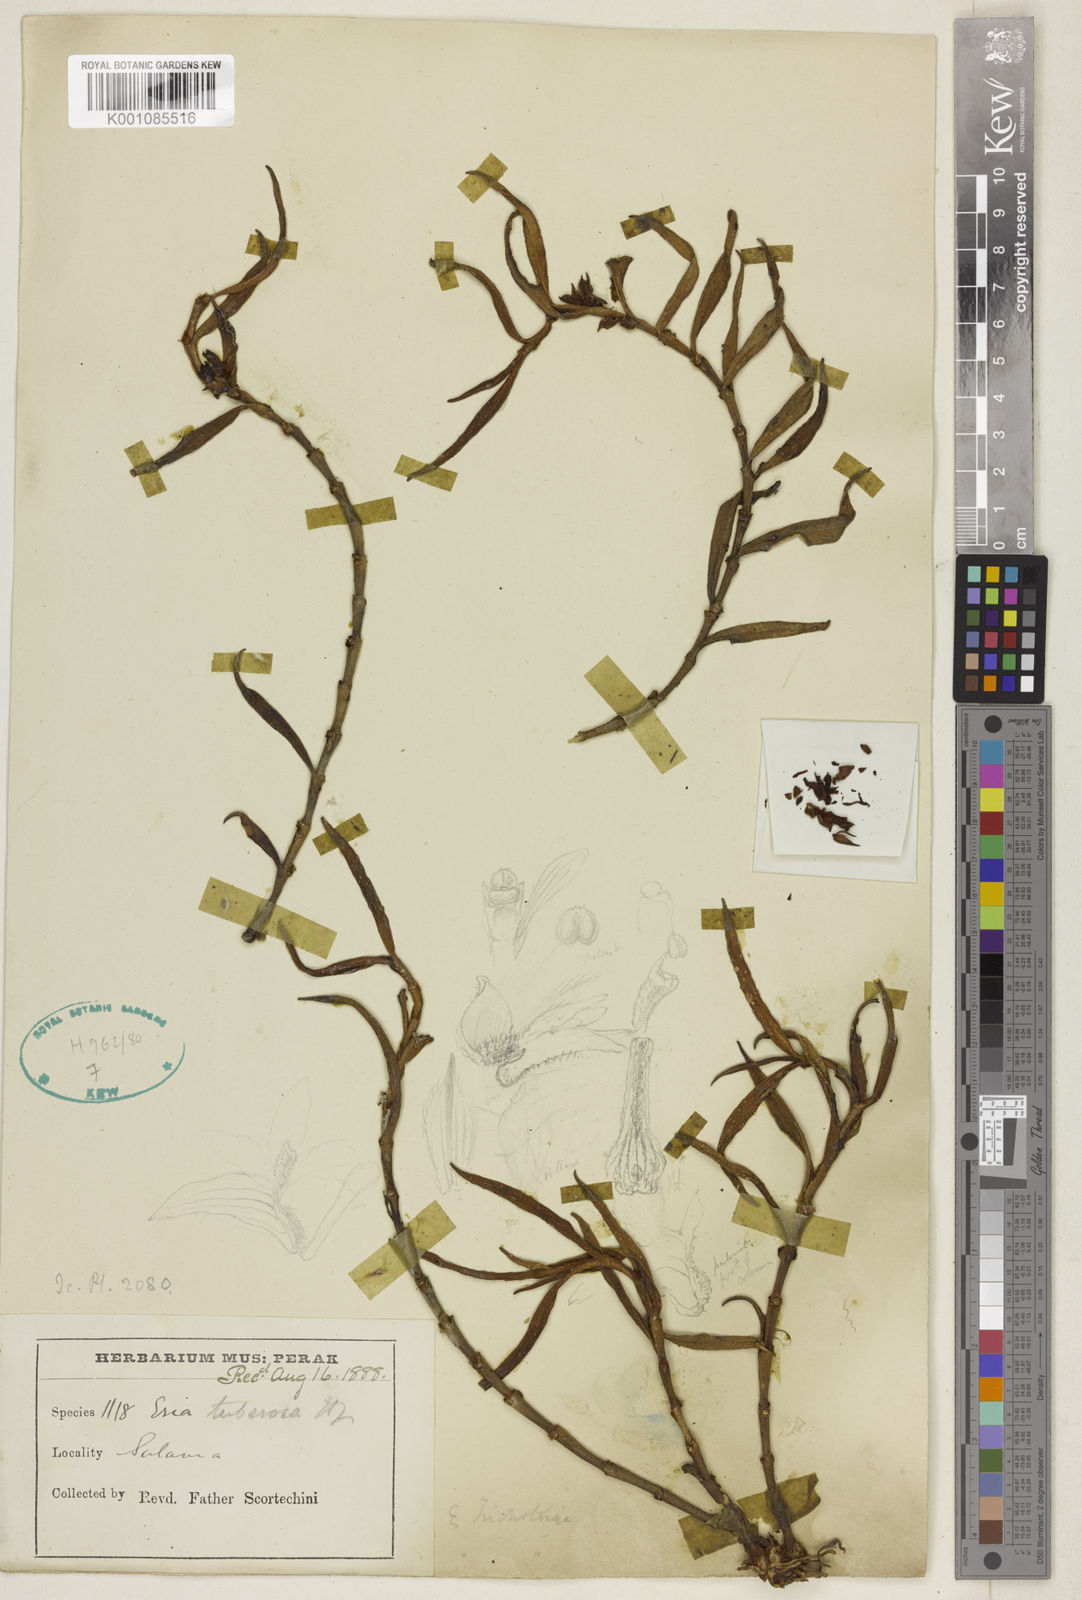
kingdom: Plantae
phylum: Tracheophyta
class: Liliopsida
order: Asparagales
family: Orchidaceae
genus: Trichotosia
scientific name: Trichotosia pauciflora
